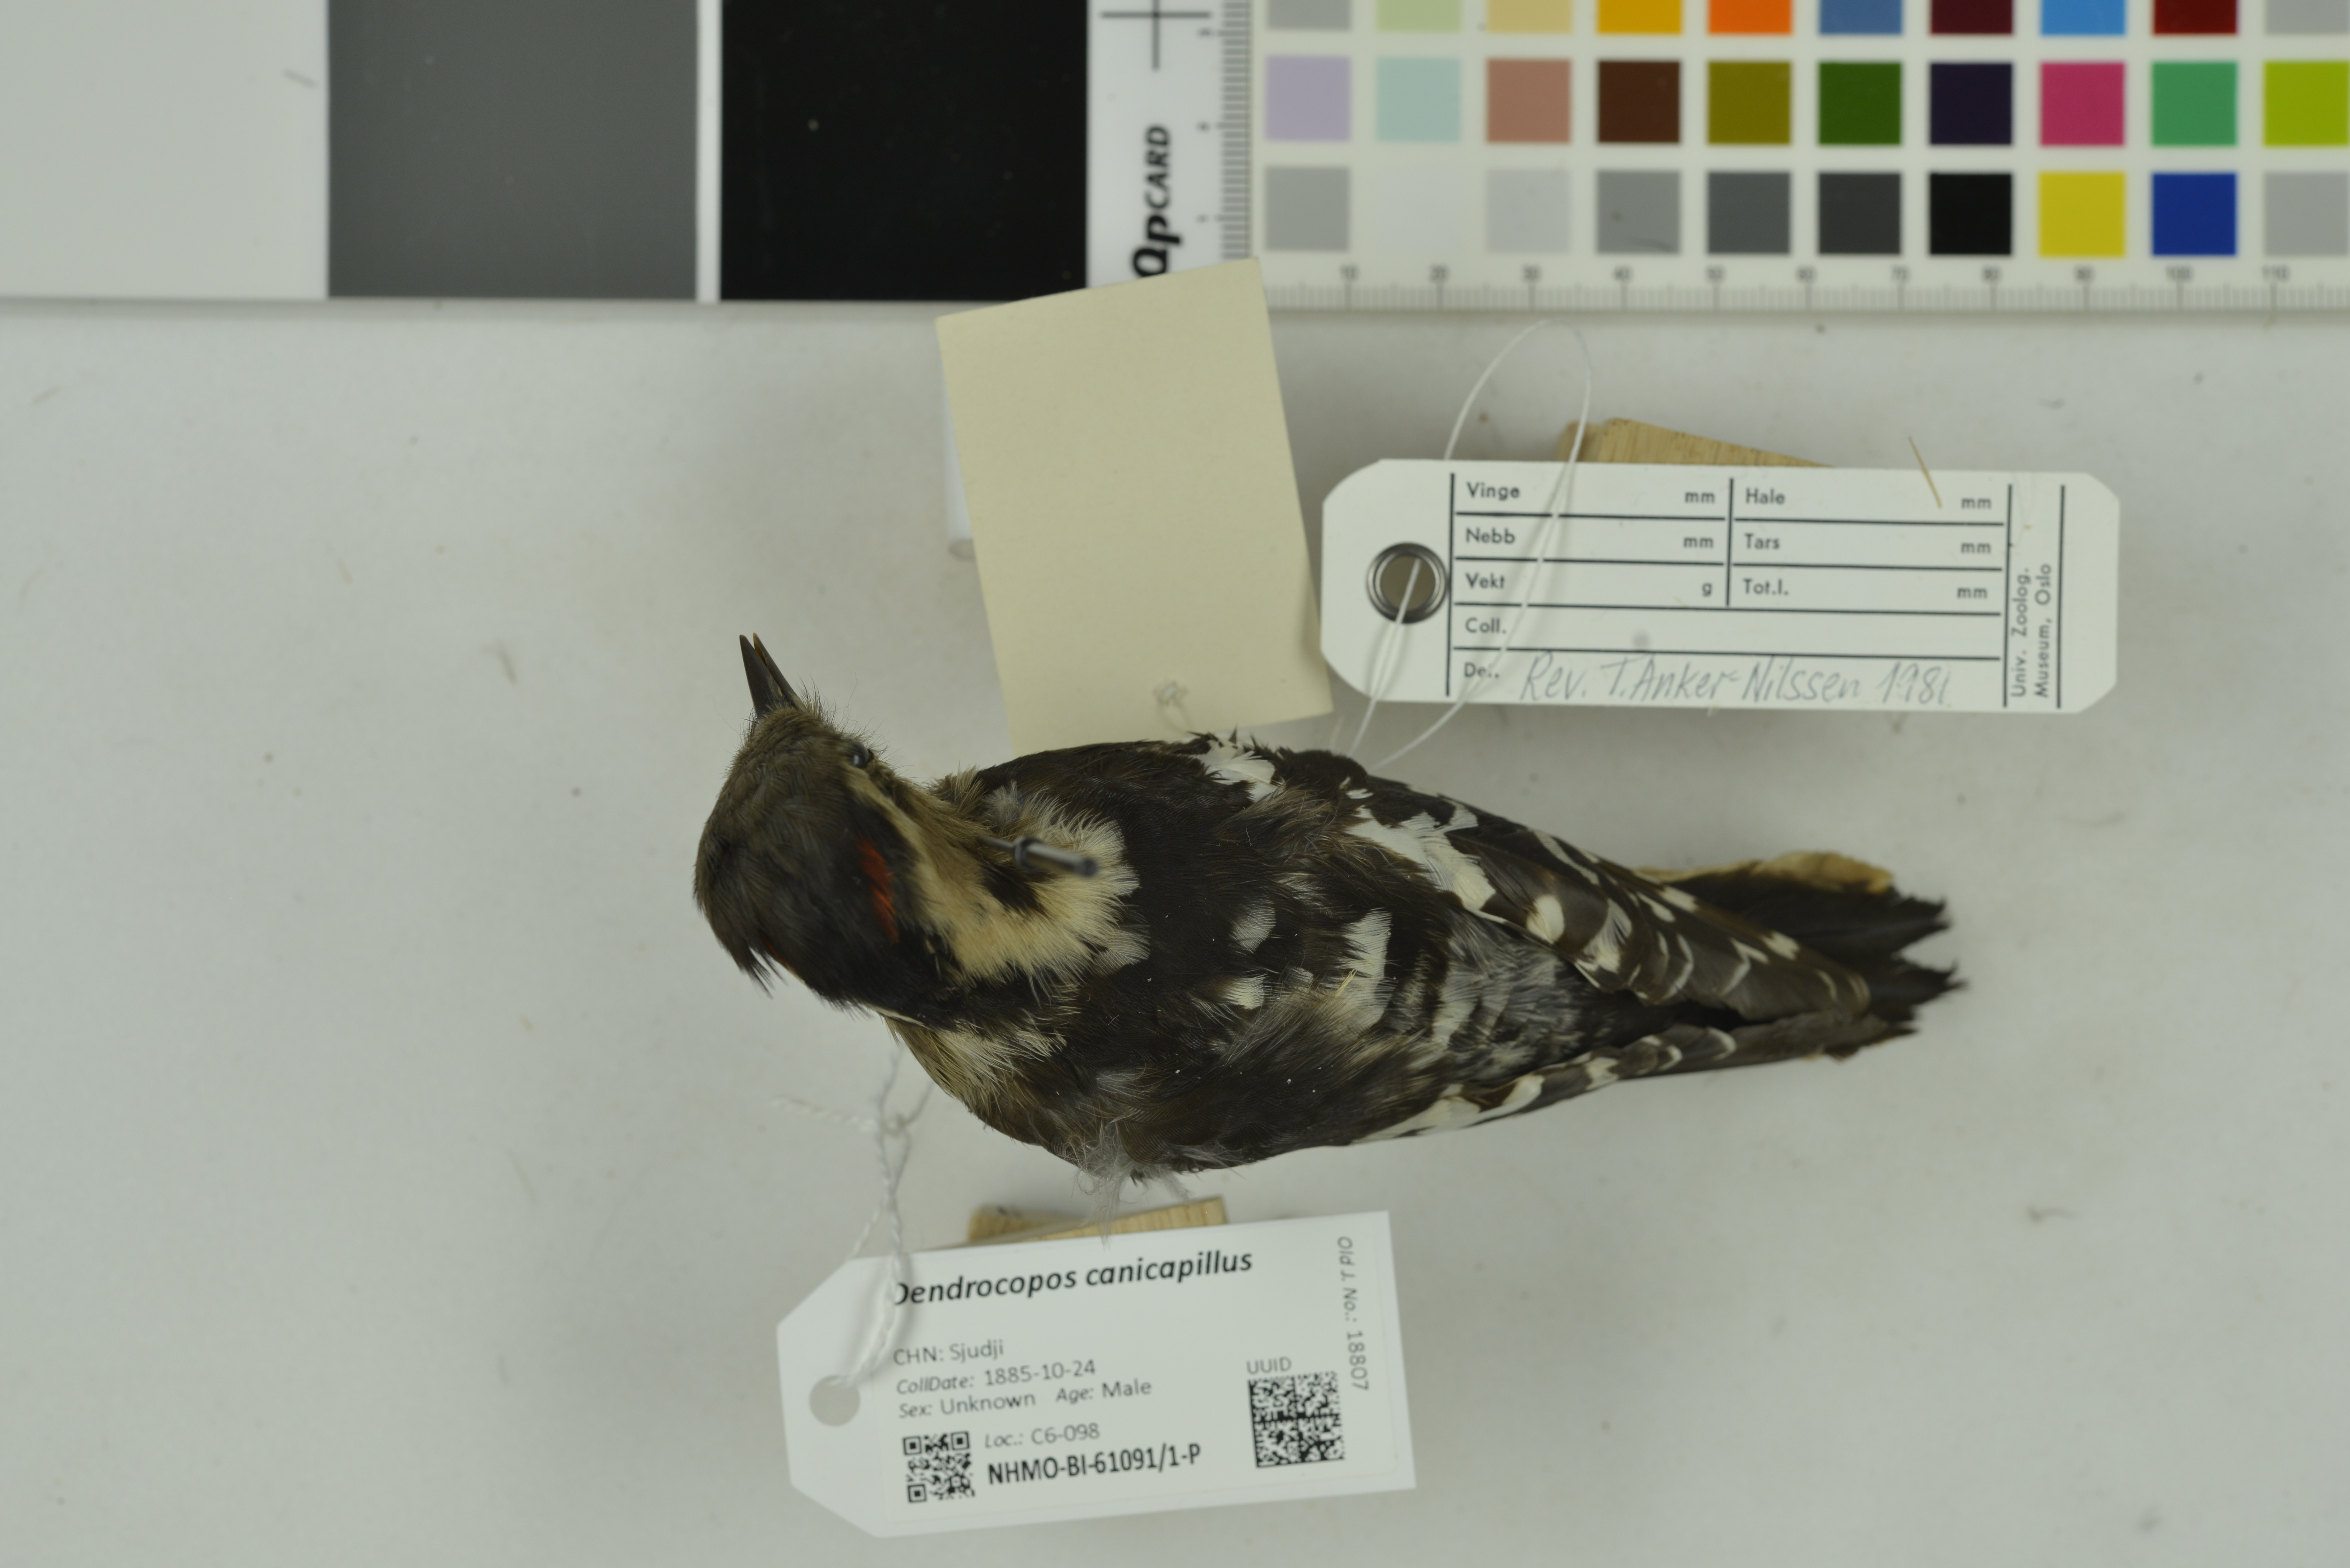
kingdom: Animalia
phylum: Chordata
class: Aves
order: Piciformes
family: Picidae
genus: Yungipicus
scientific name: Yungipicus canicapillus
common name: Grey-capped pygmy woodpecker
